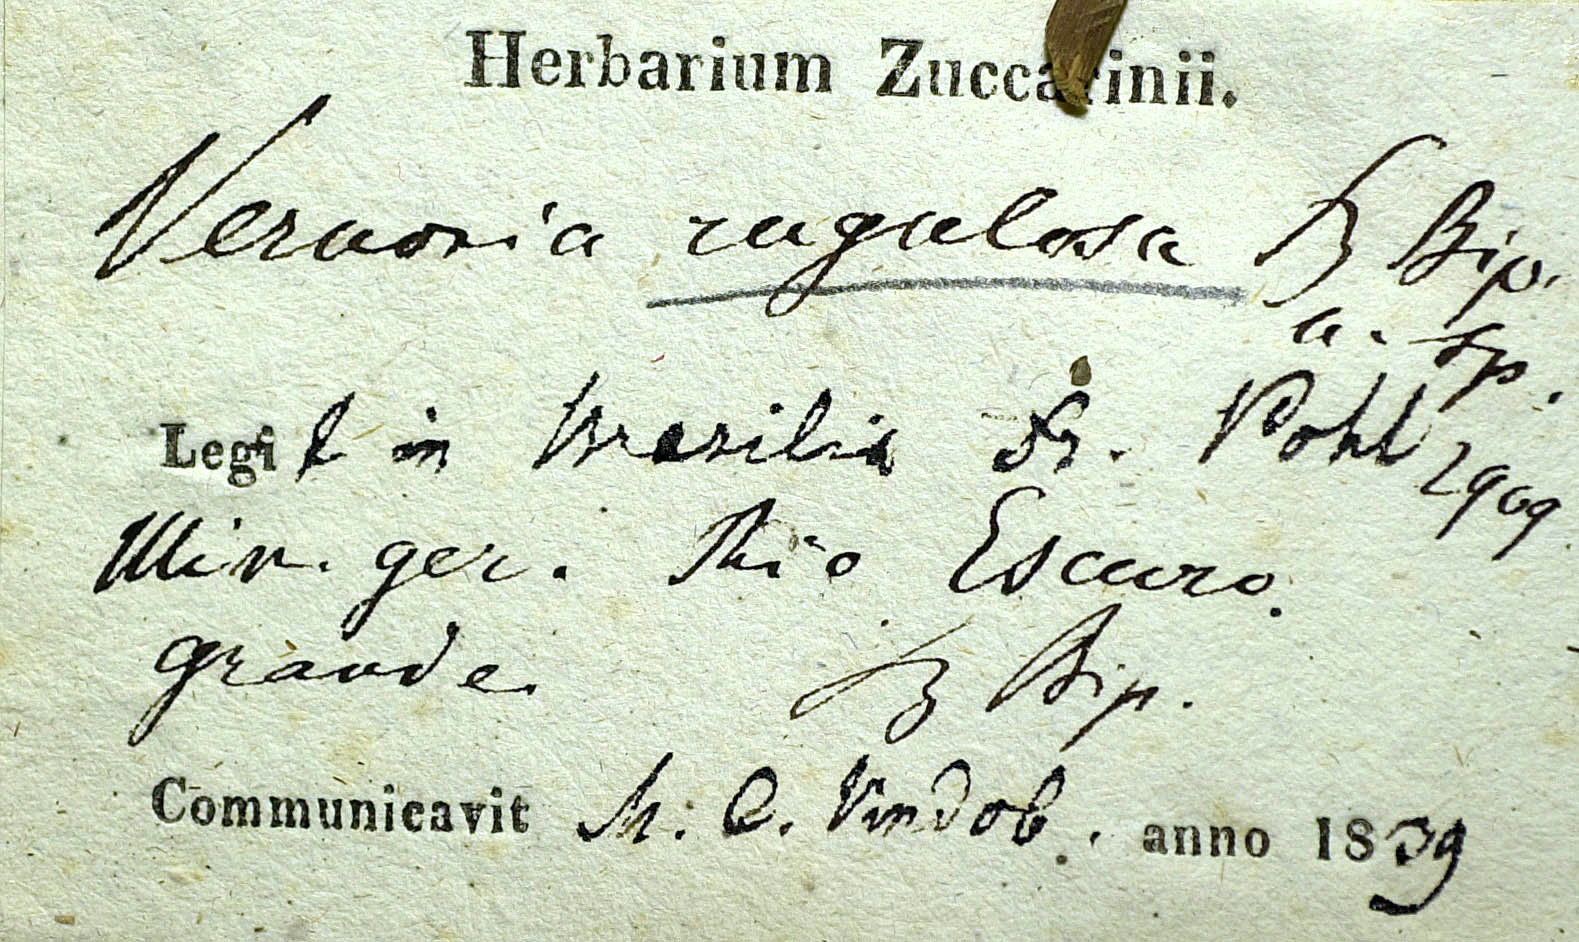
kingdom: Plantae
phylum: Tracheophyta
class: Magnoliopsida
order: Asterales
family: Asteraceae
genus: Lessingianthus
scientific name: Lessingianthus rugulosus
